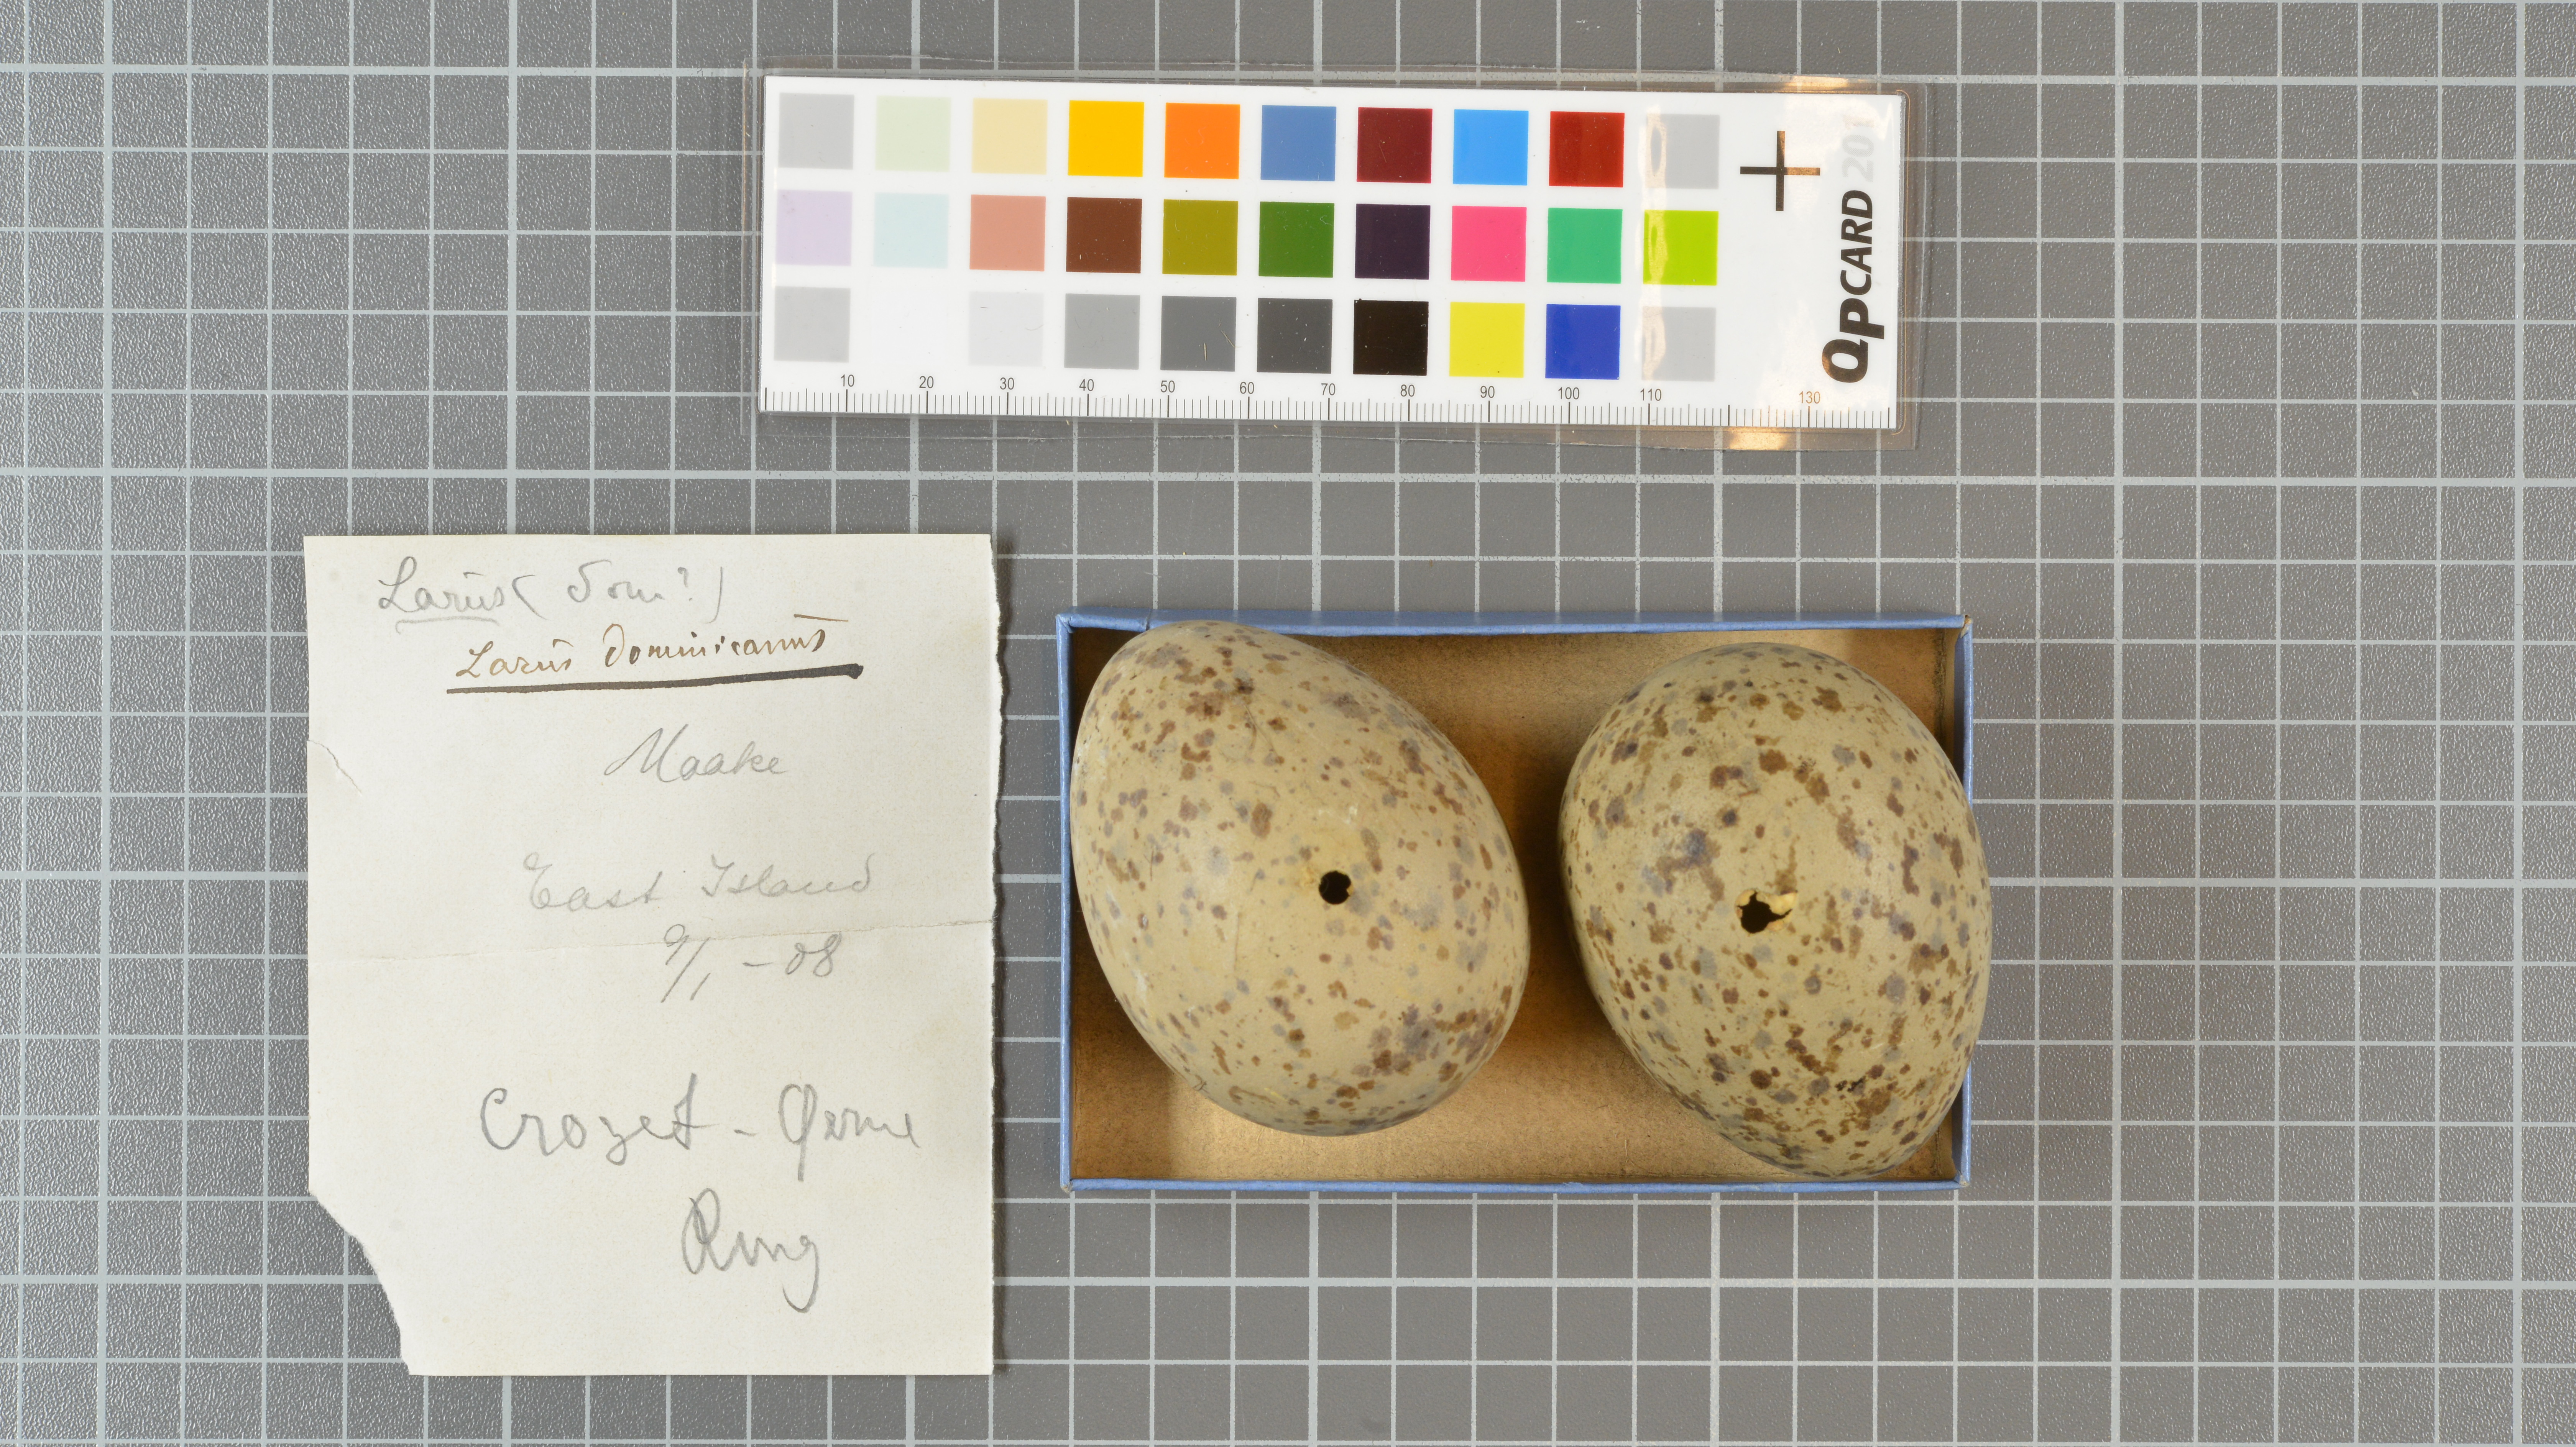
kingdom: Animalia
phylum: Chordata
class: Aves
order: Charadriiformes
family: Laridae
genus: Larus
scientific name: Larus dominicanus
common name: Kelp gull
